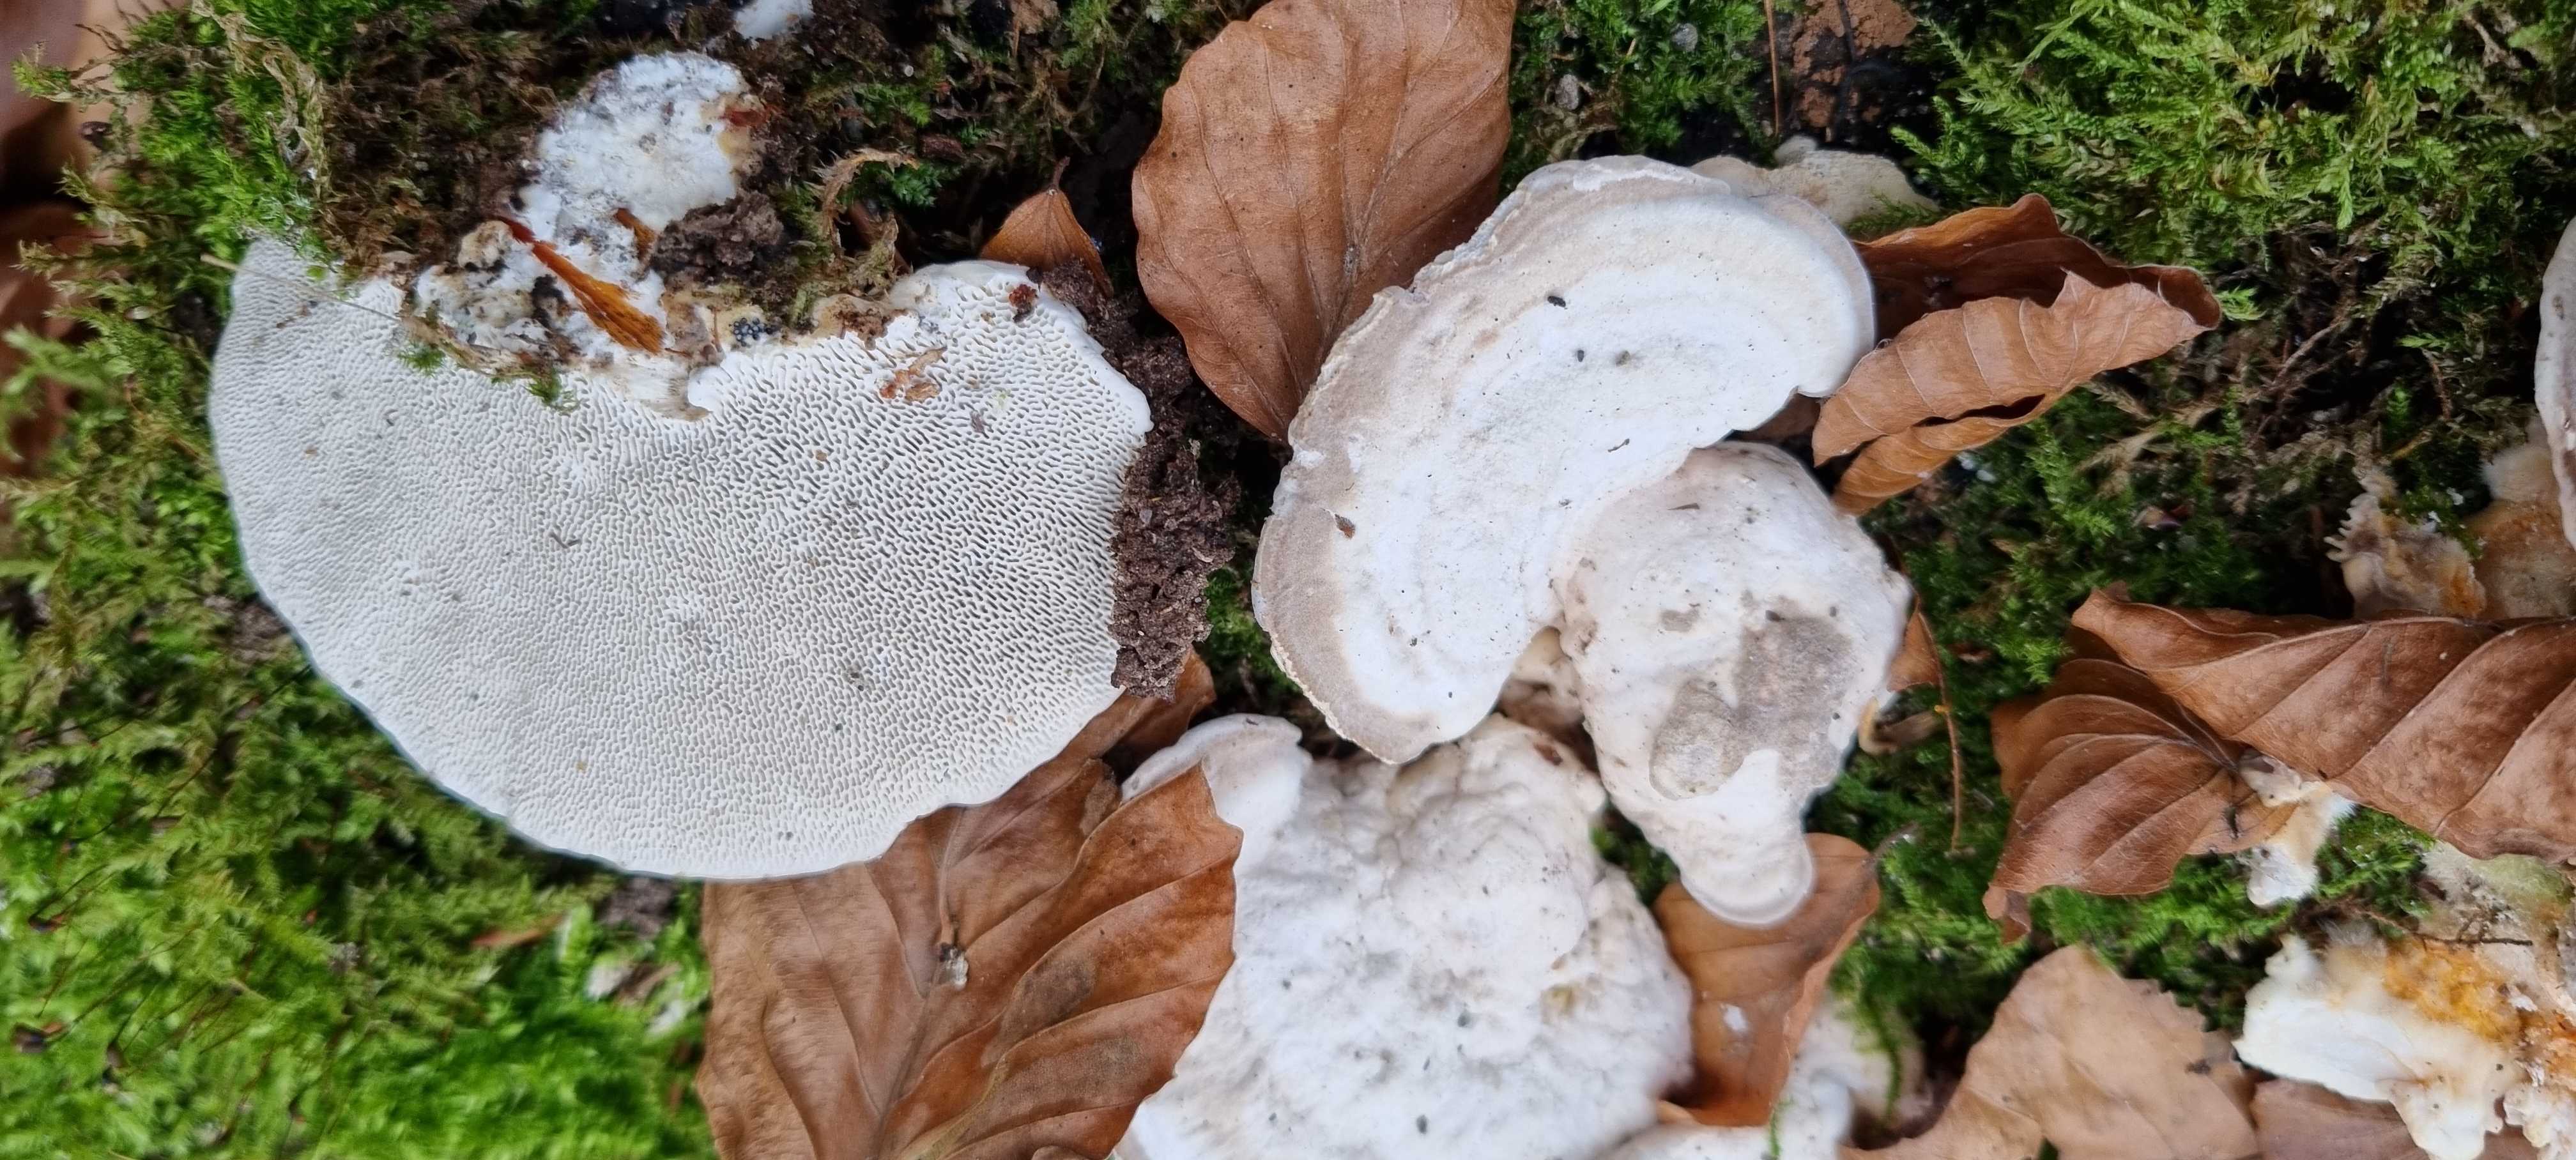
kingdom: Fungi
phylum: Basidiomycota
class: Agaricomycetes
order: Polyporales
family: Polyporaceae
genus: Trametes
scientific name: Trametes gibbosa
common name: puklet læderporesvamp
